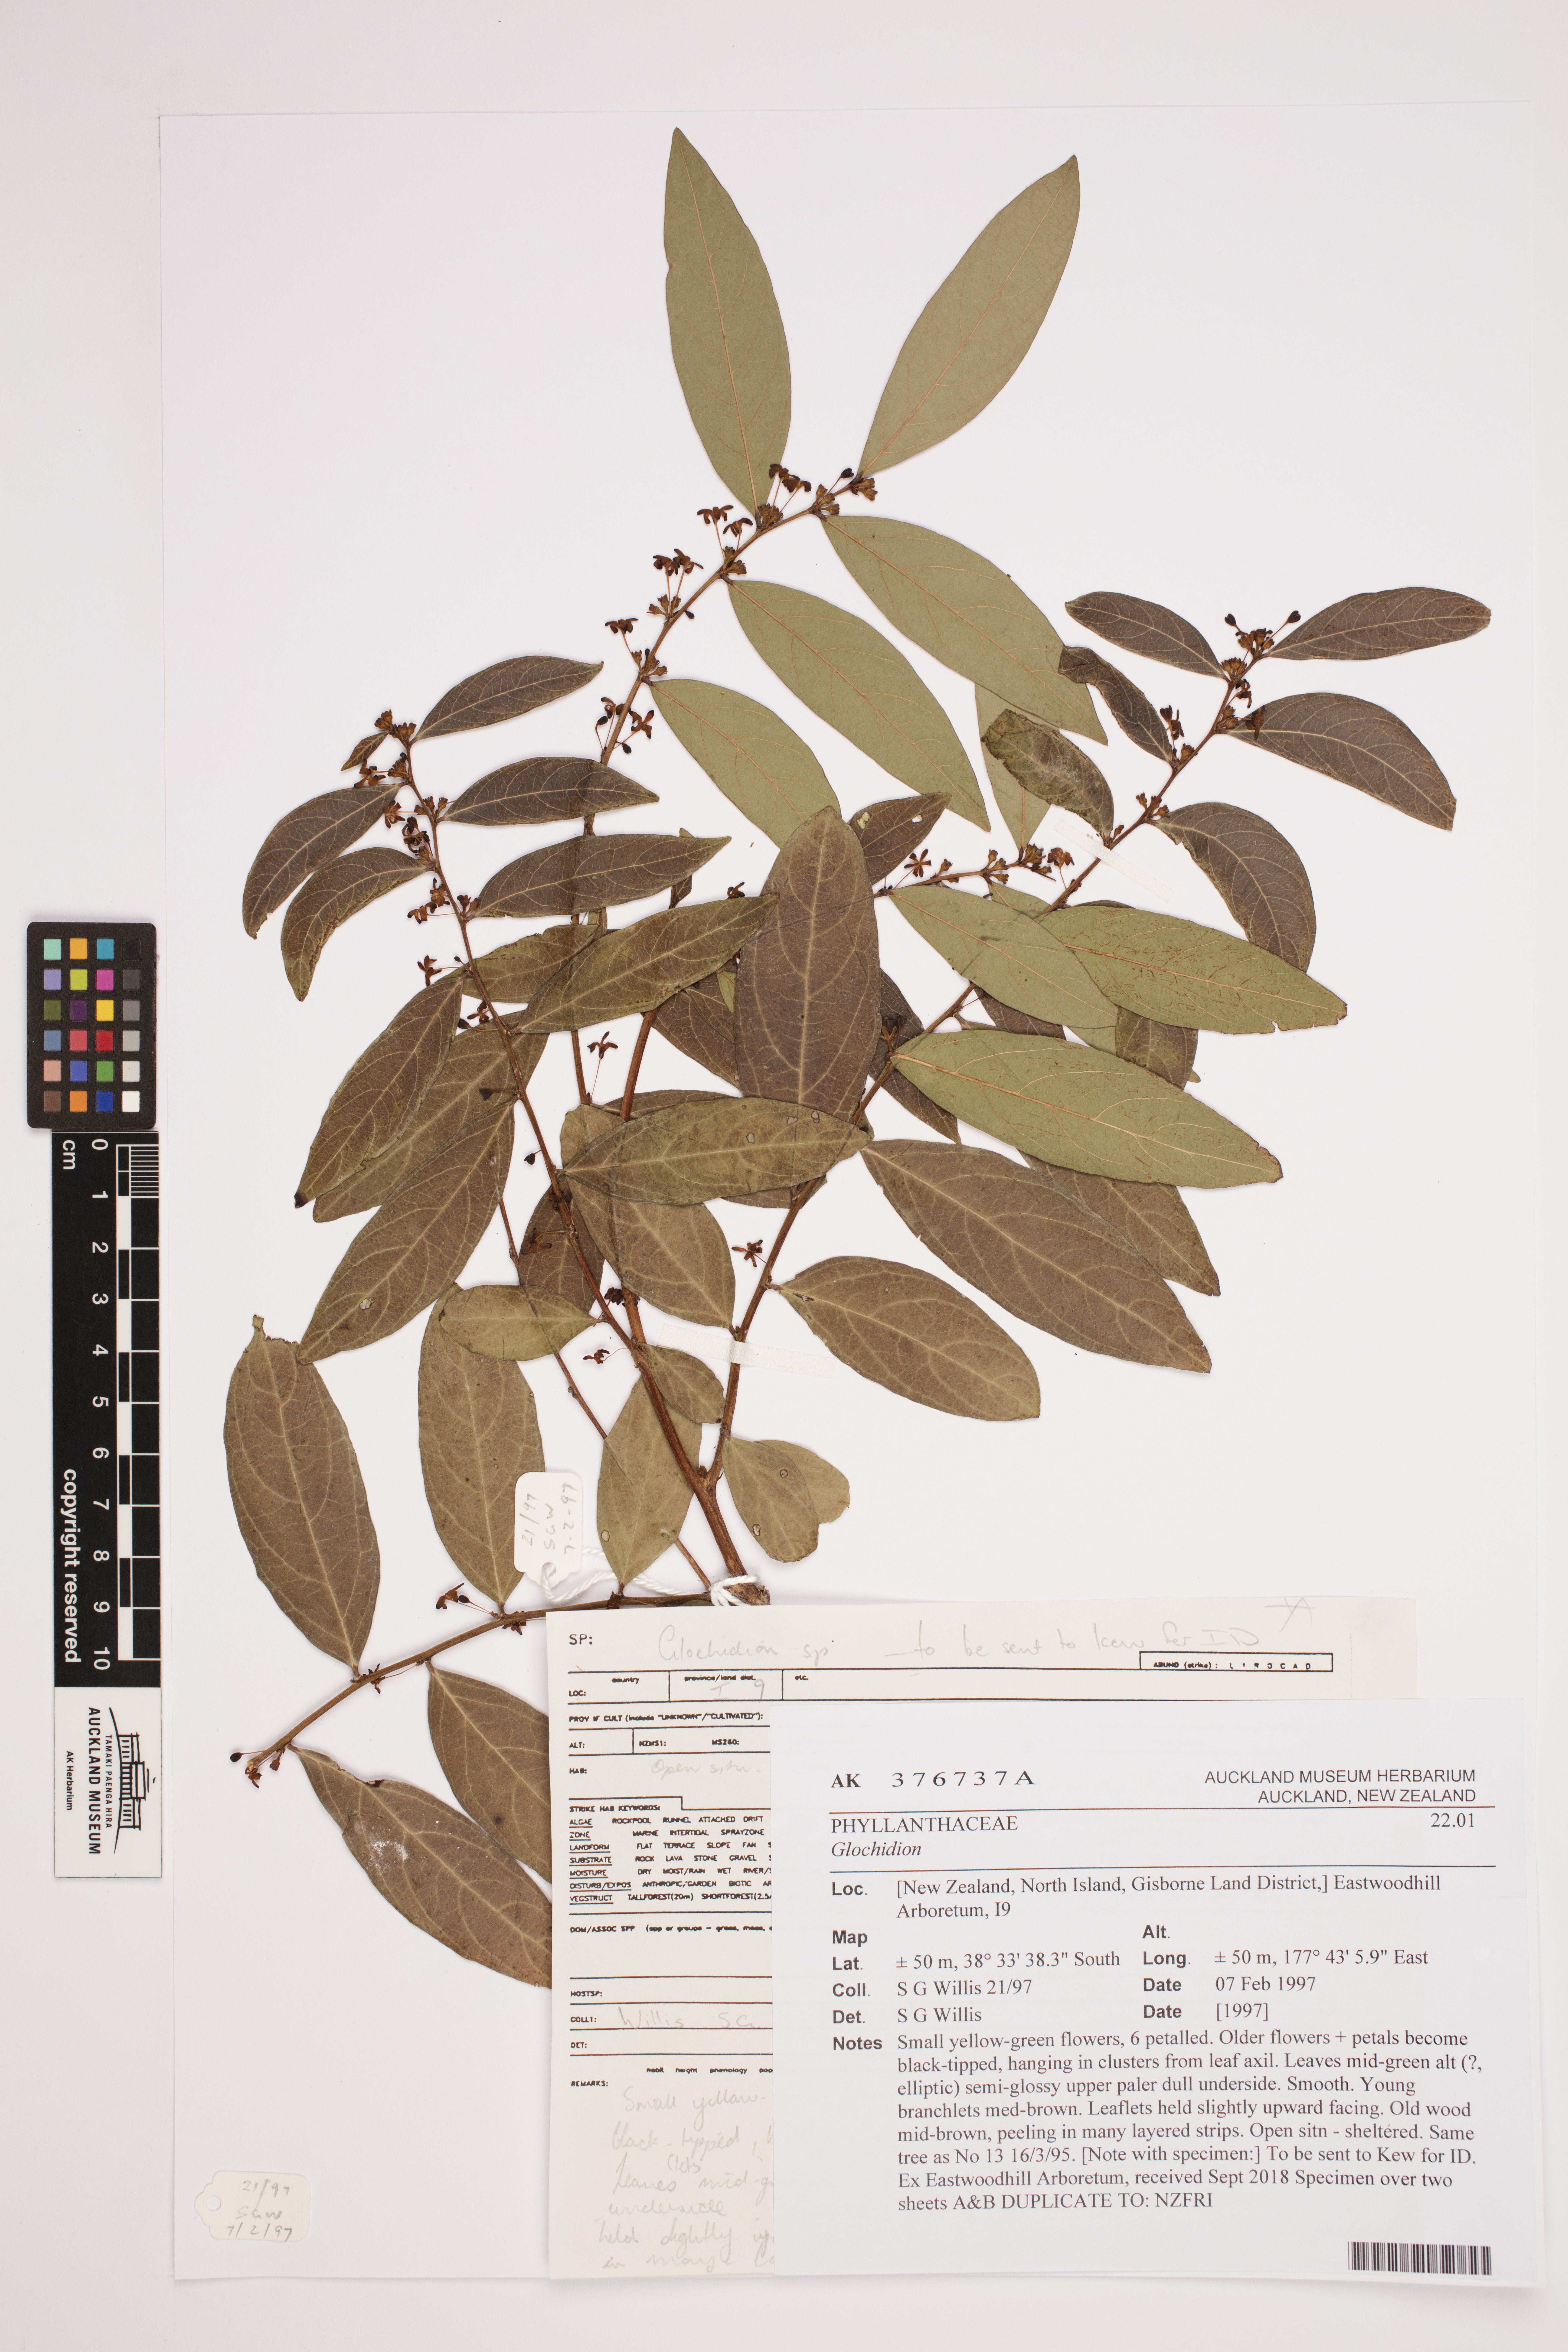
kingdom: Plantae
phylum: Tracheophyta
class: Magnoliopsida
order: Malpighiales
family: Phyllanthaceae
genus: Glochidion
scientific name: Glochidion
